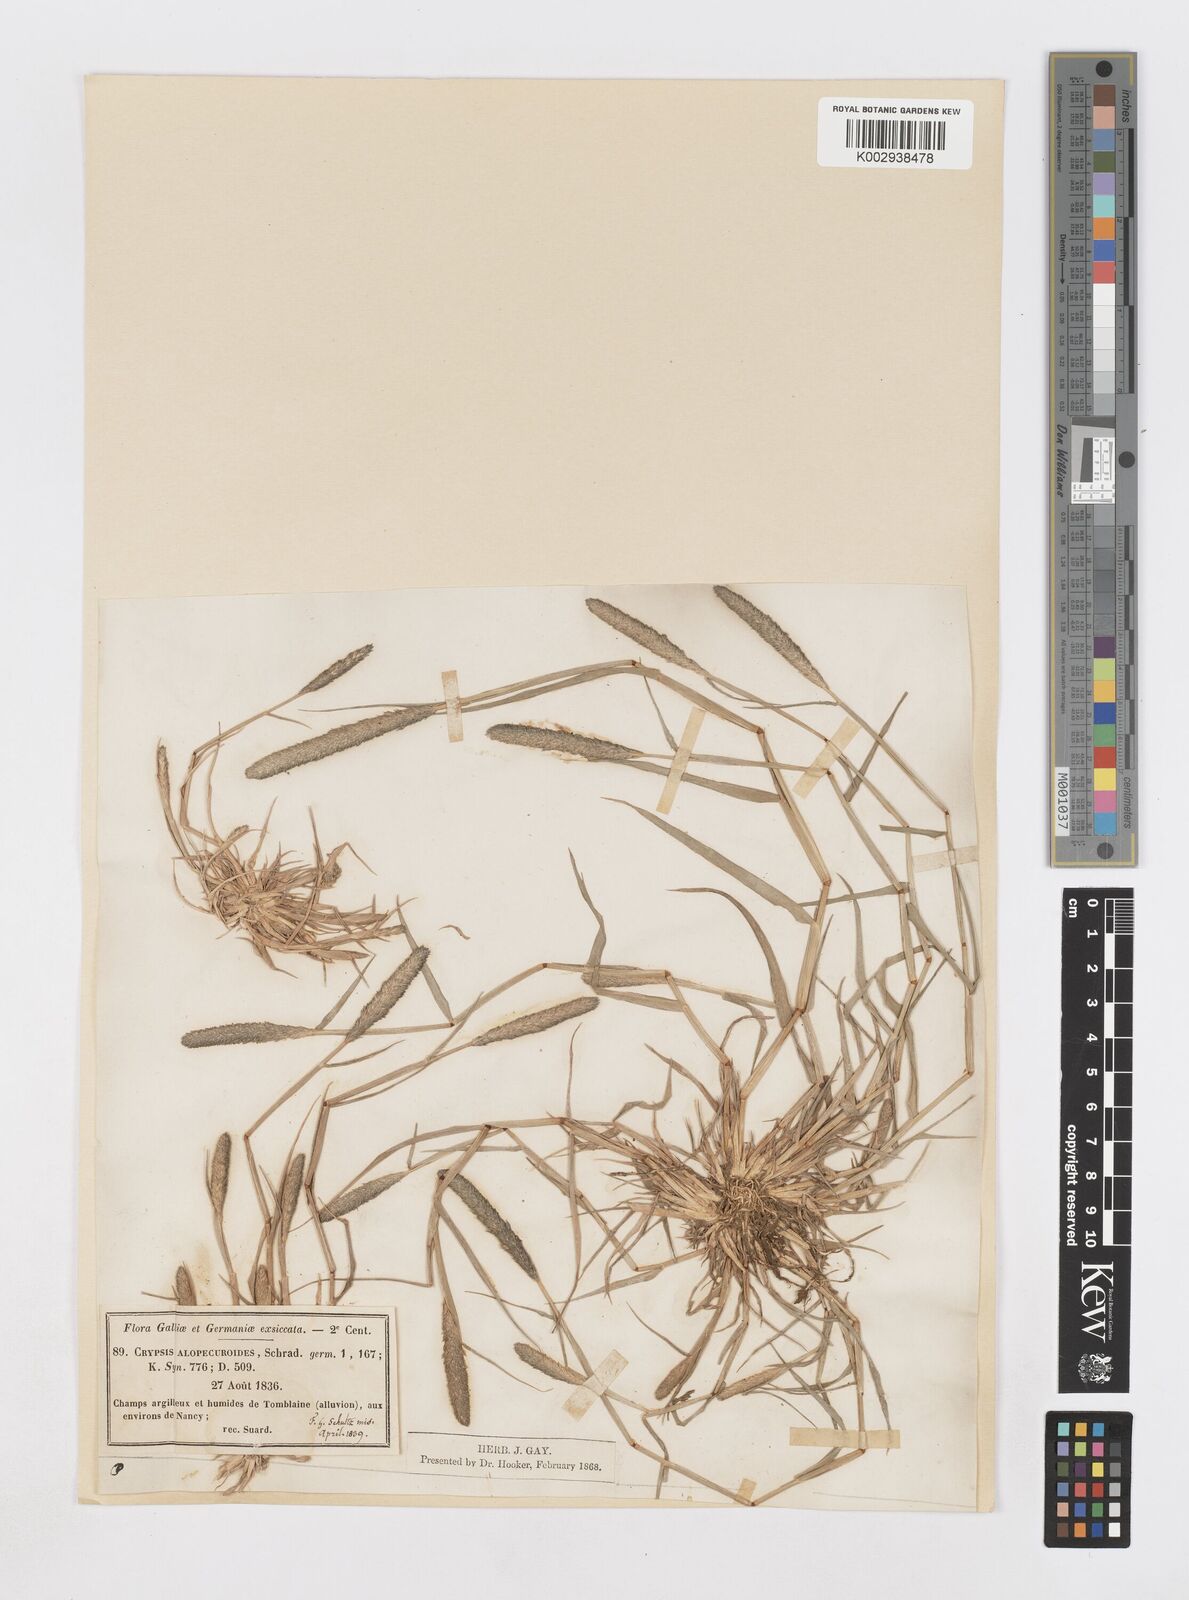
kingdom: Plantae
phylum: Tracheophyta
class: Liliopsida
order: Poales
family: Poaceae
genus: Sporobolus
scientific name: Sporobolus alopecuroides
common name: Foxtail pricklegrass
